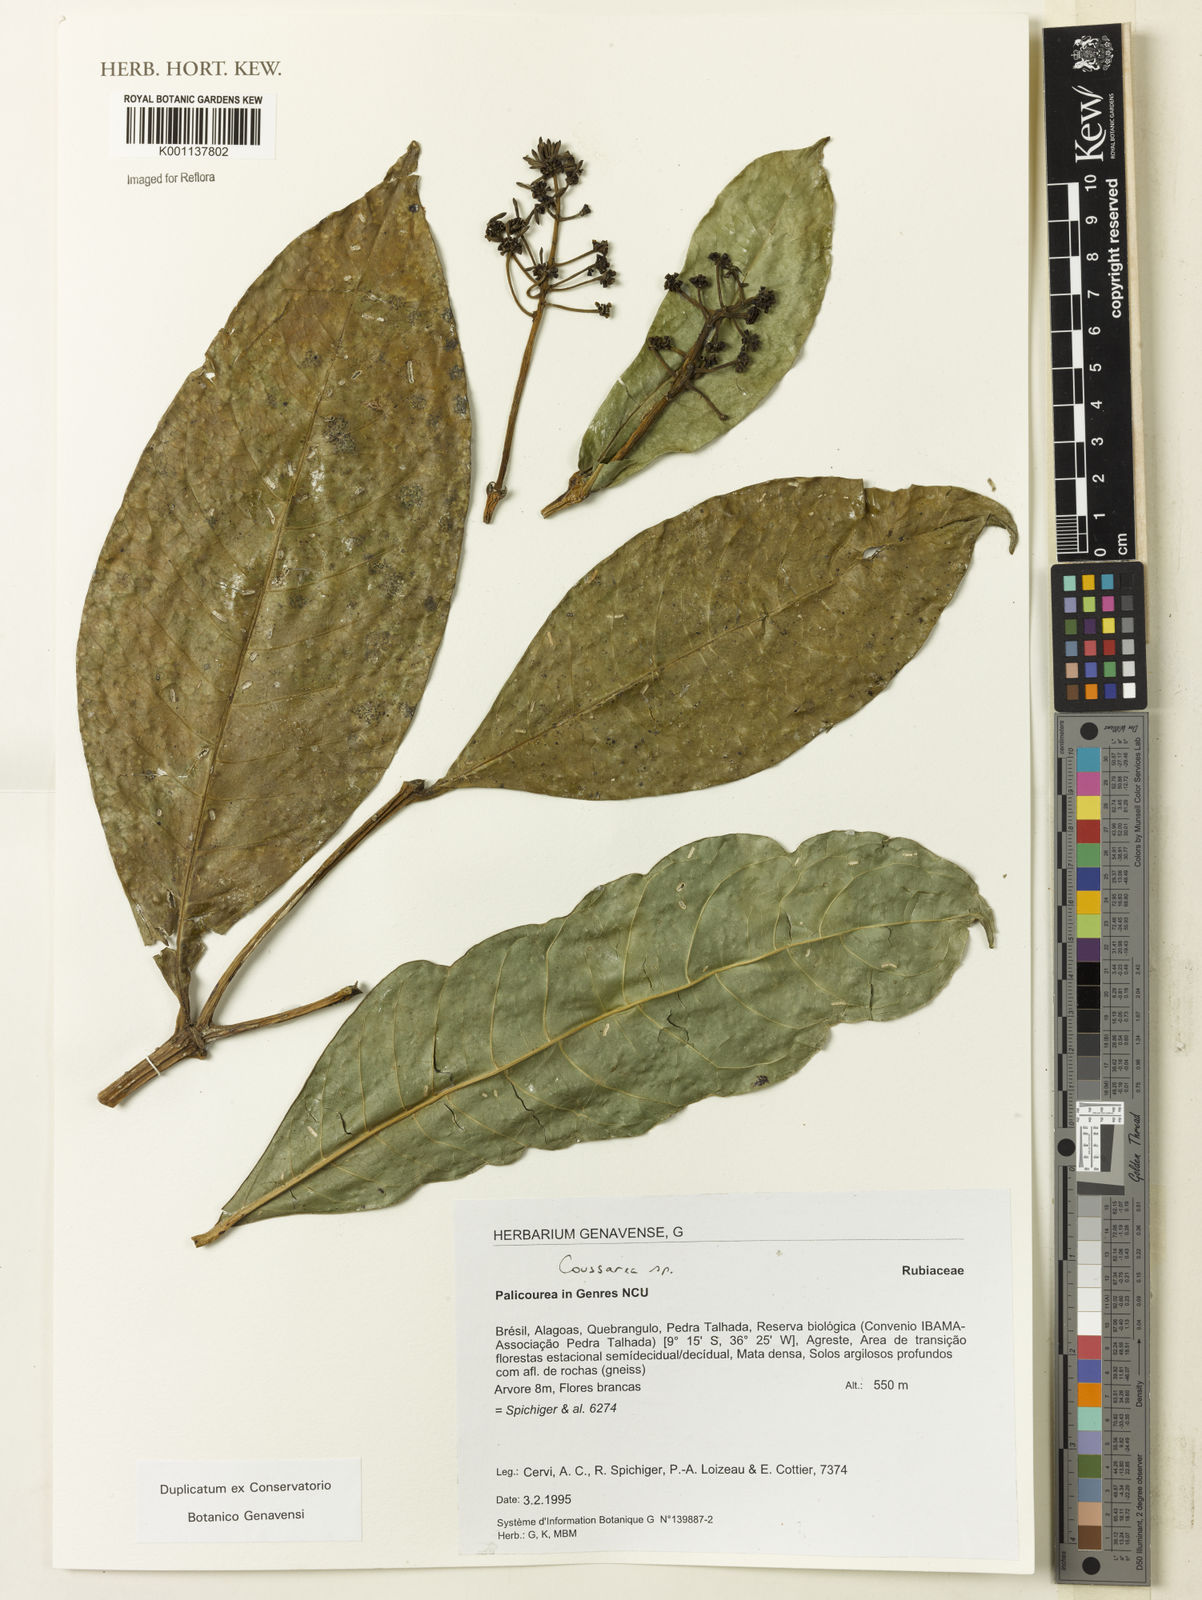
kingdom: Plantae
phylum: Tracheophyta
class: Magnoliopsida
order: Gentianales
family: Rubiaceae
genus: Coussarea
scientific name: Coussarea
